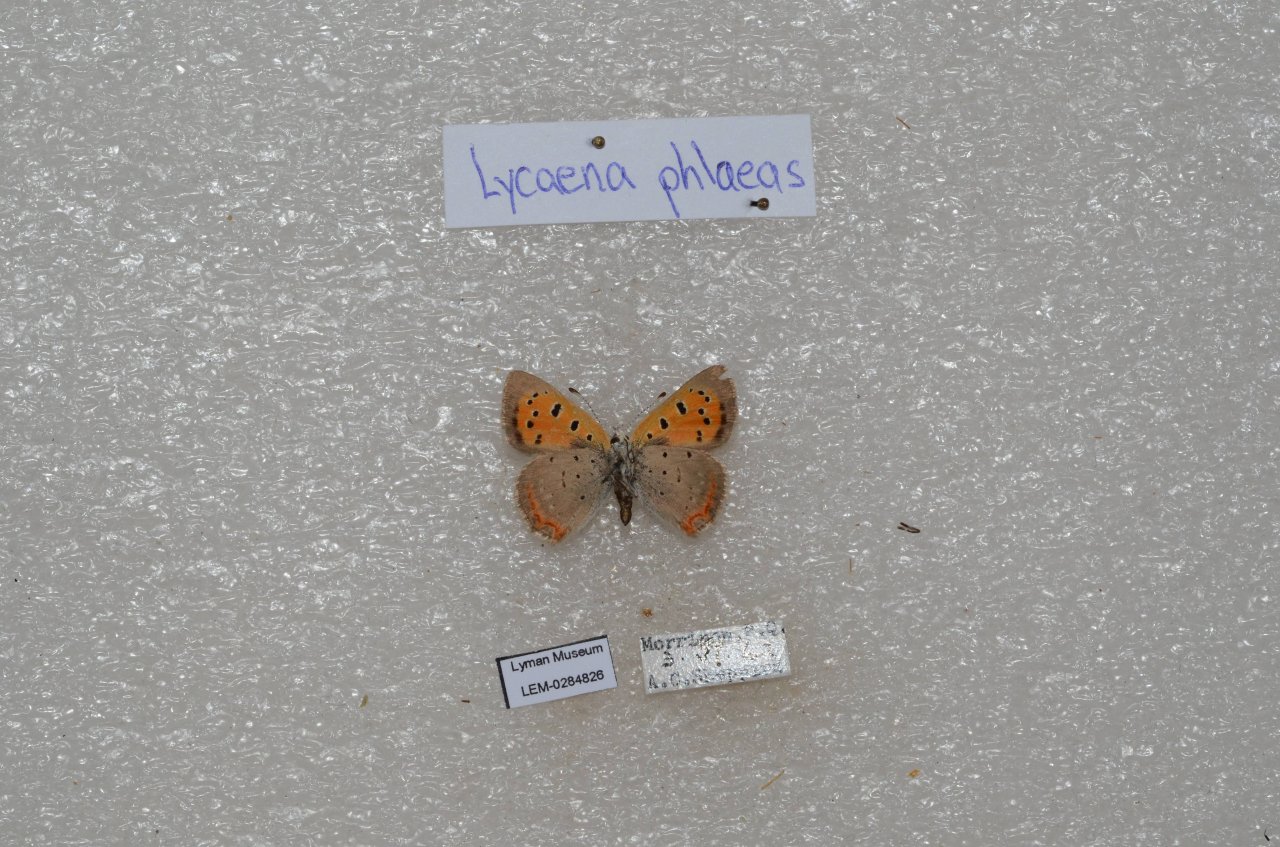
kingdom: Animalia
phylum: Arthropoda
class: Insecta
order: Lepidoptera
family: Lycaenidae
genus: Lycaena
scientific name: Lycaena phlaeas
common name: American Copper
